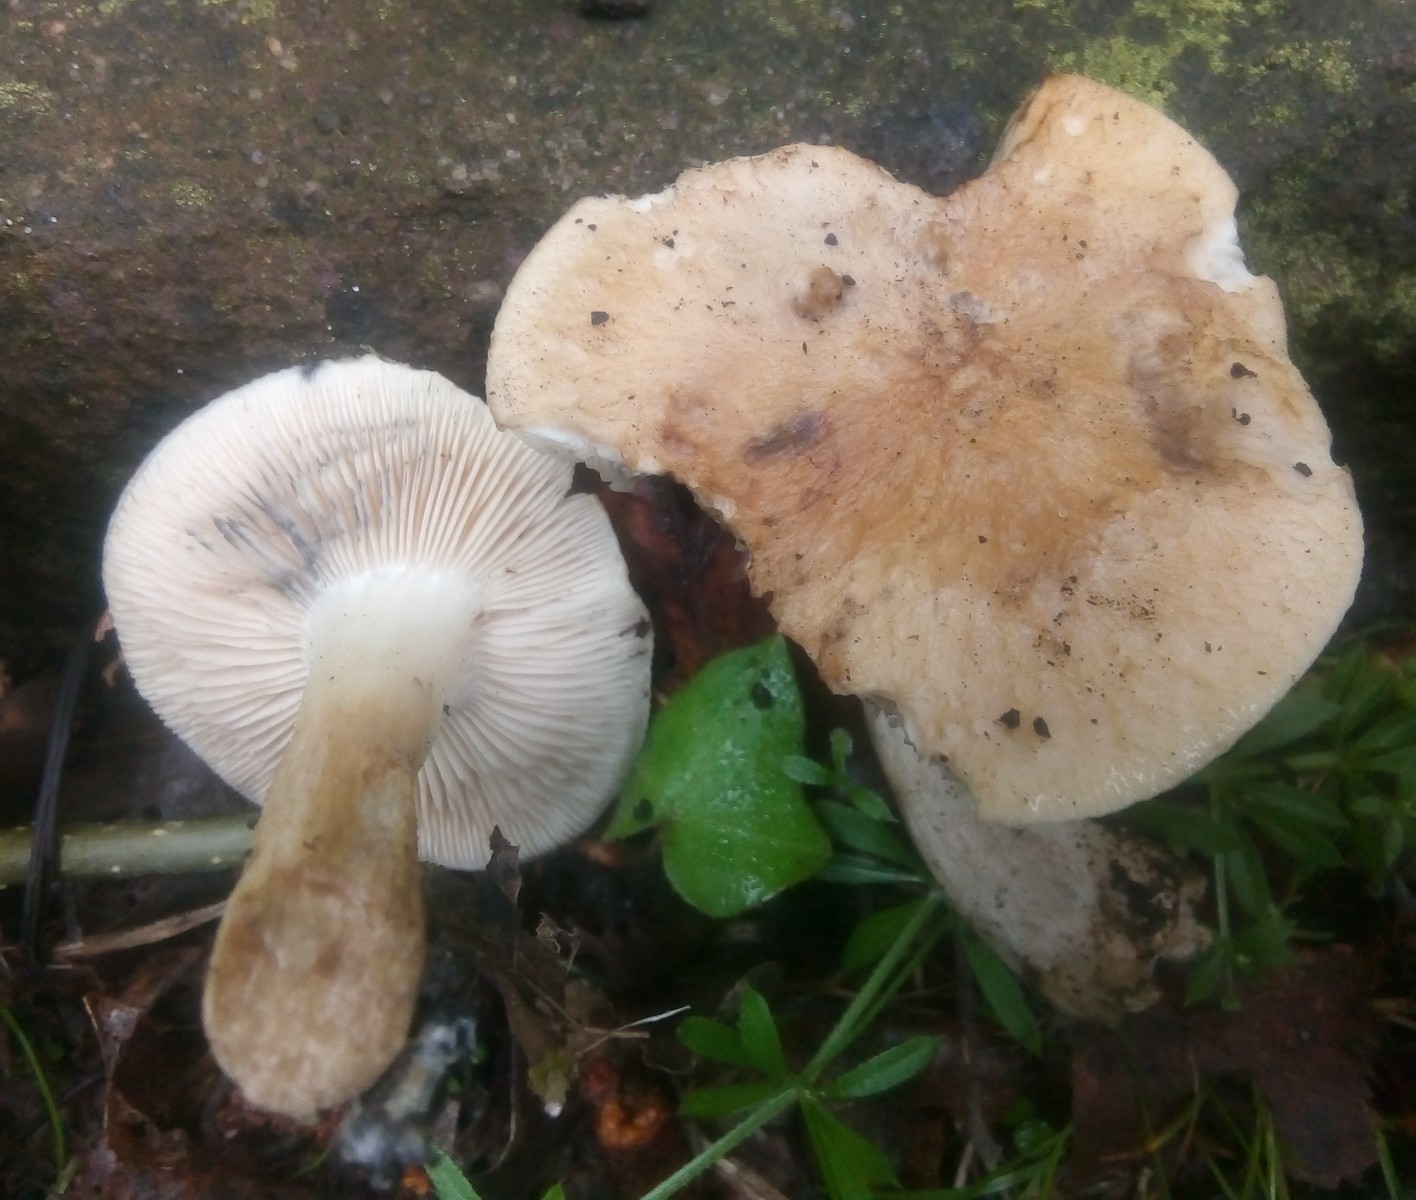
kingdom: Fungi
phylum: Basidiomycota
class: Agaricomycetes
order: Agaricales
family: Lyophyllaceae
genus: Lyophyllum
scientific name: Lyophyllum paelochroum
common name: blånende gråblad
